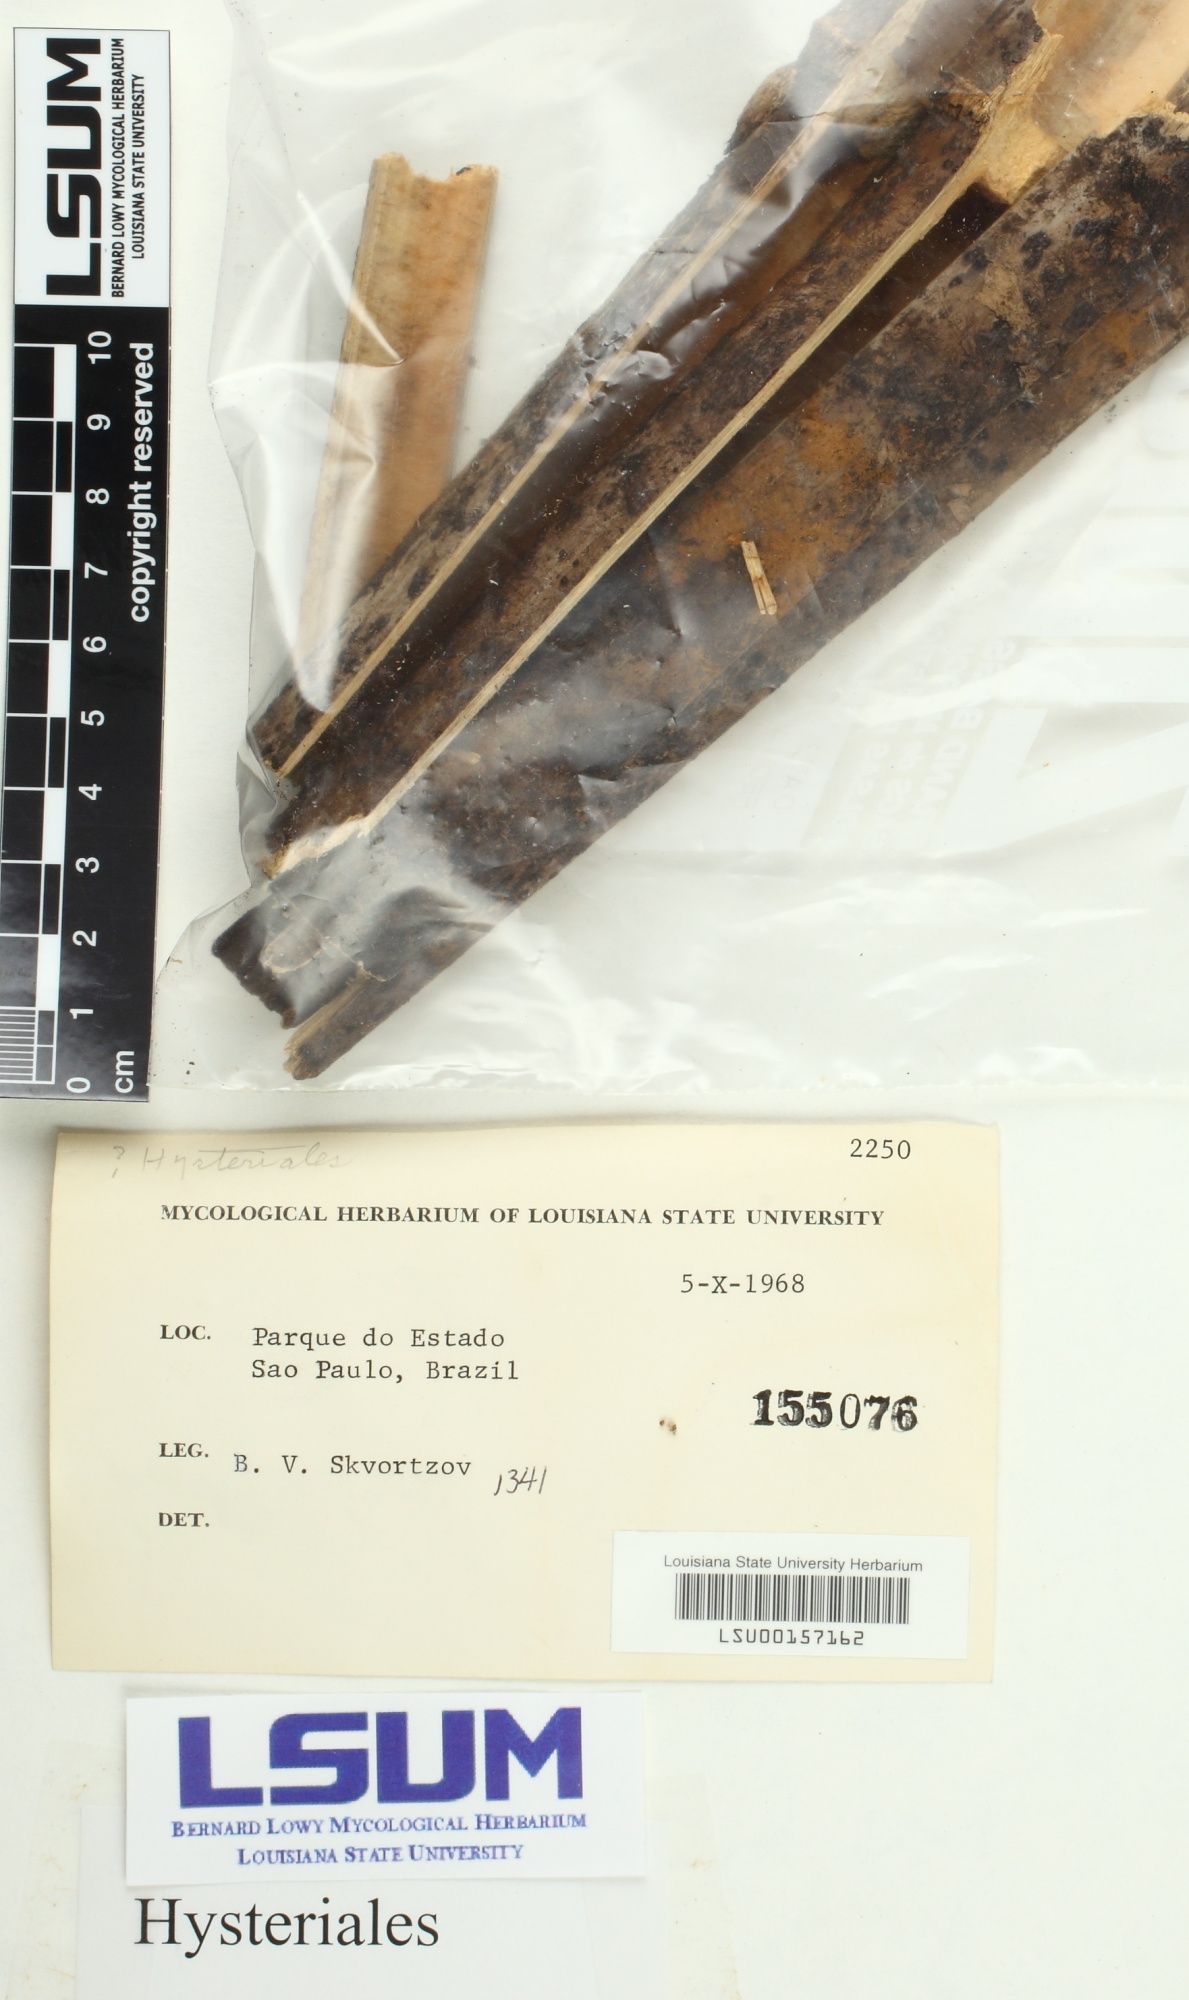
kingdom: Fungi
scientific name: Fungi
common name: Fungi
